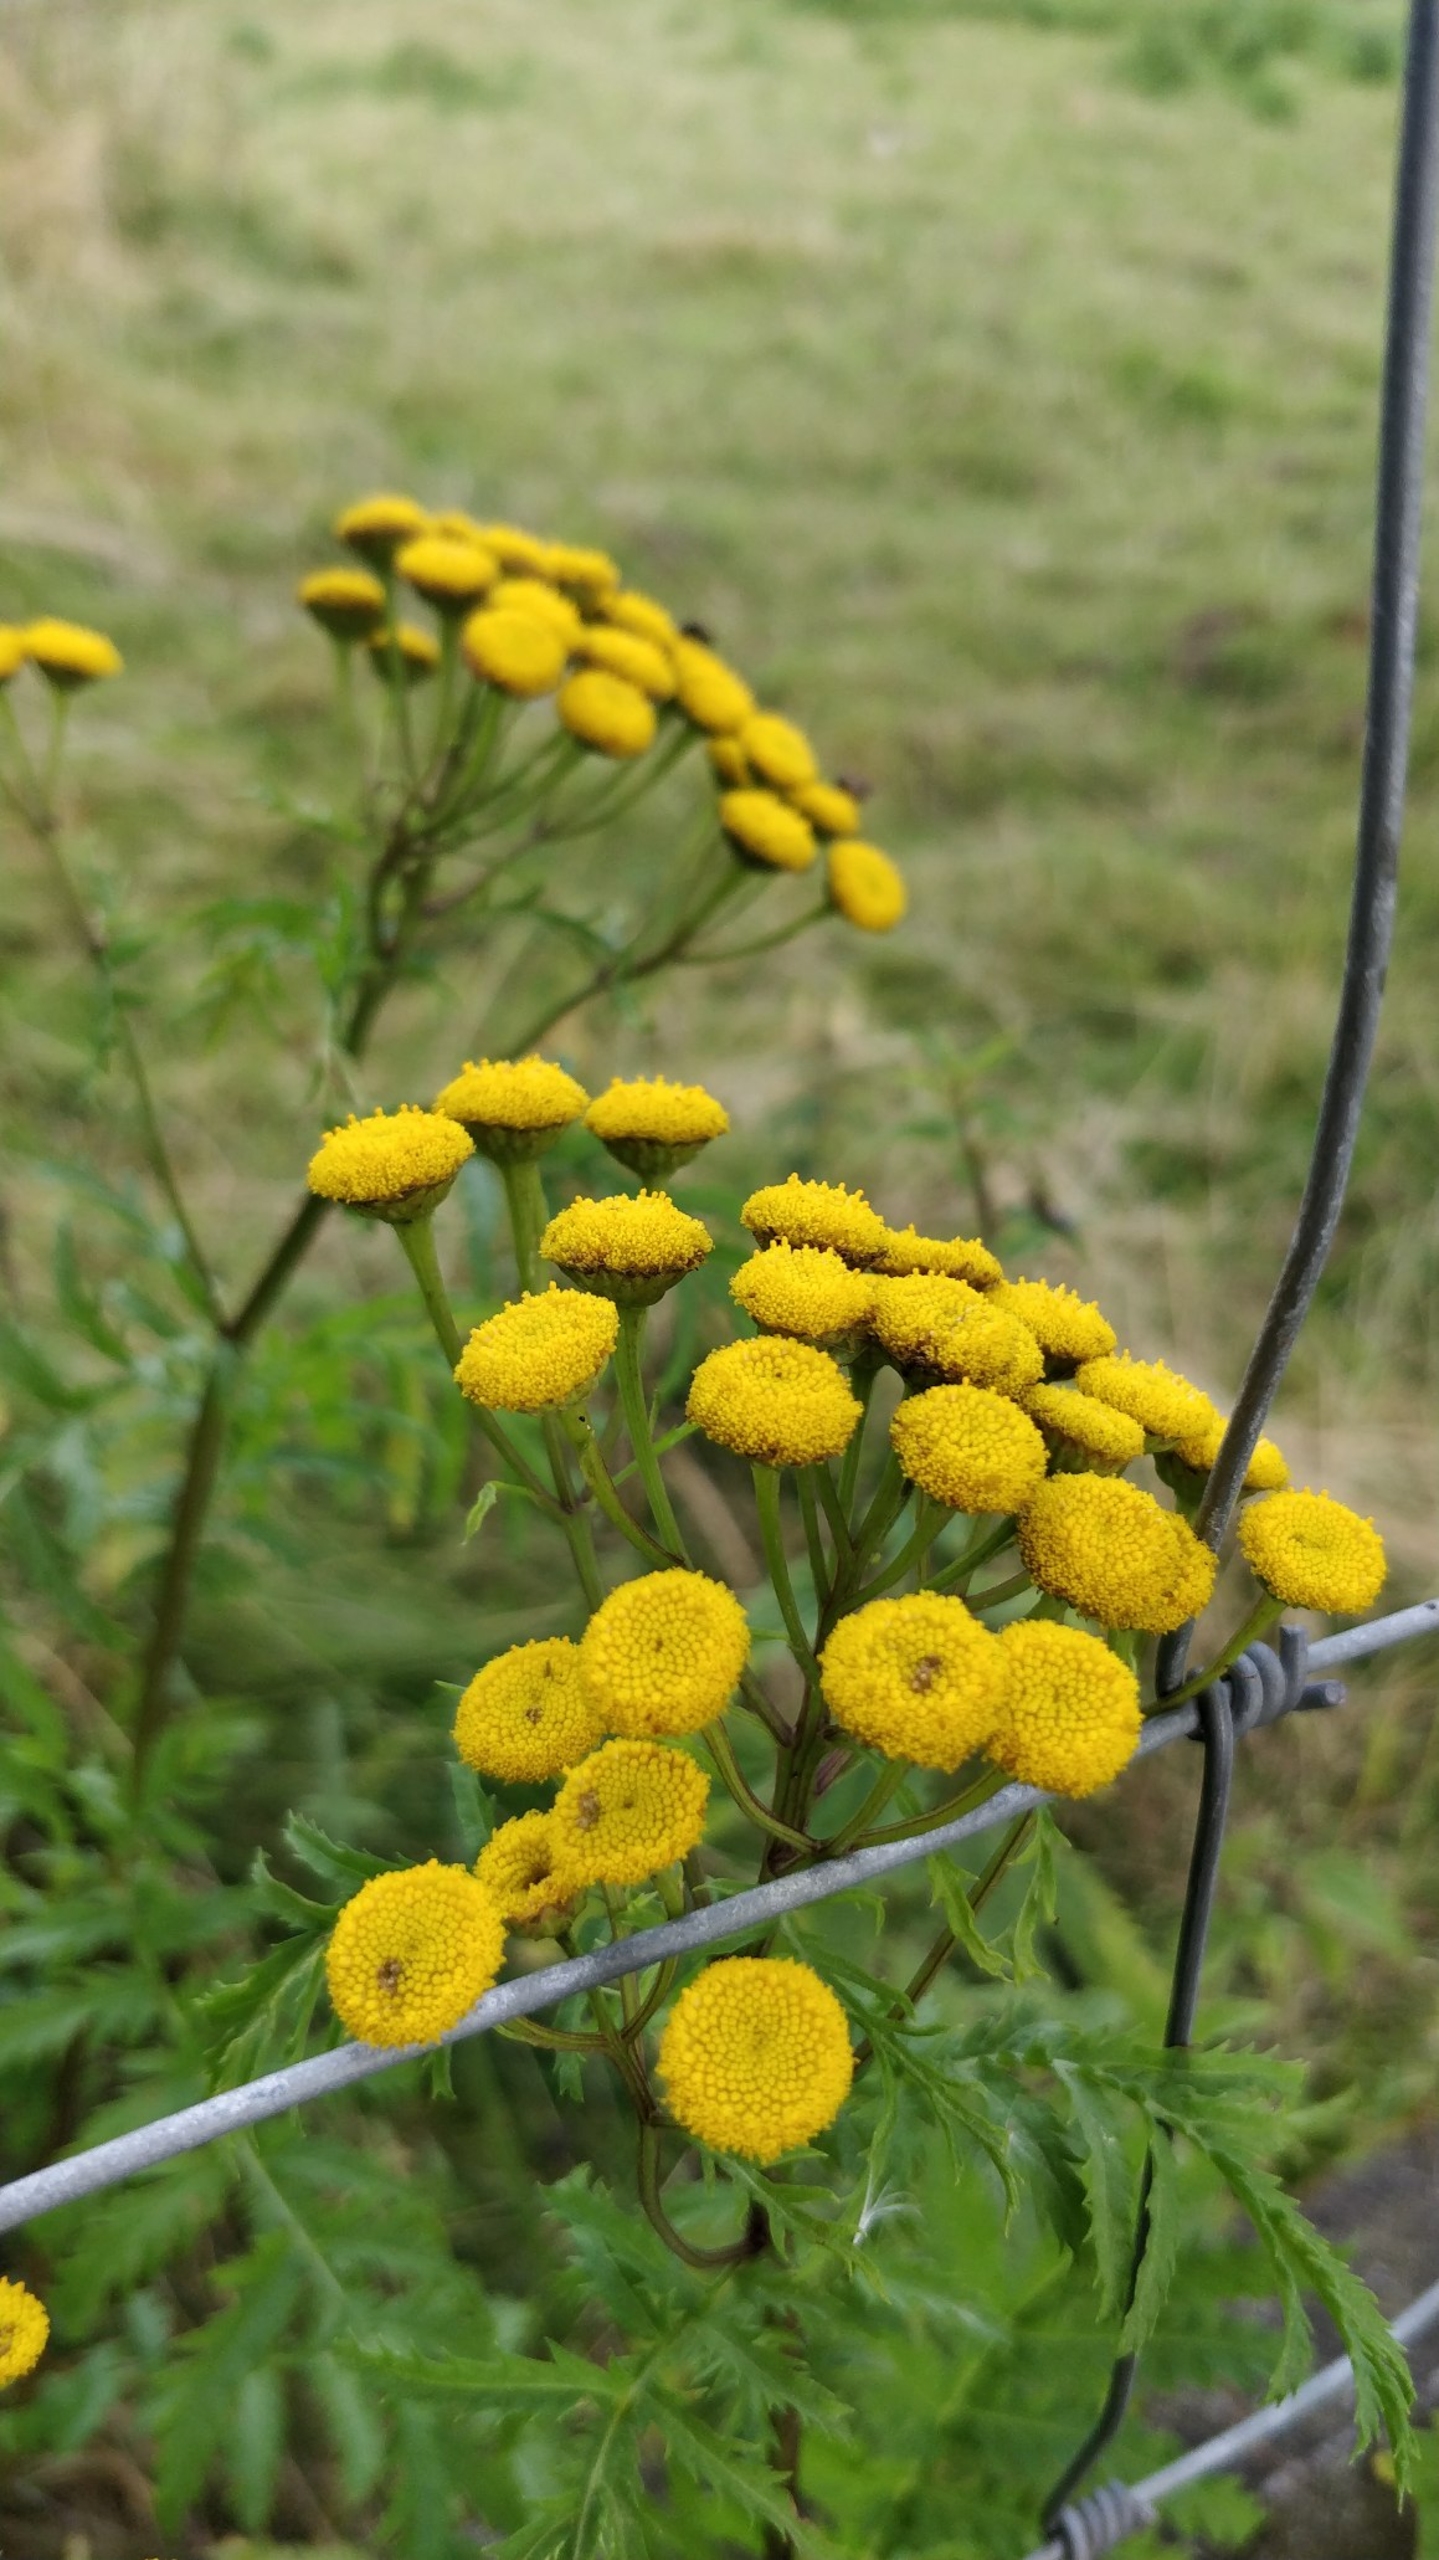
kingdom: Plantae
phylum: Tracheophyta
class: Magnoliopsida
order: Asterales
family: Asteraceae
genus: Tanacetum
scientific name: Tanacetum vulgare
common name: Rejnfan
